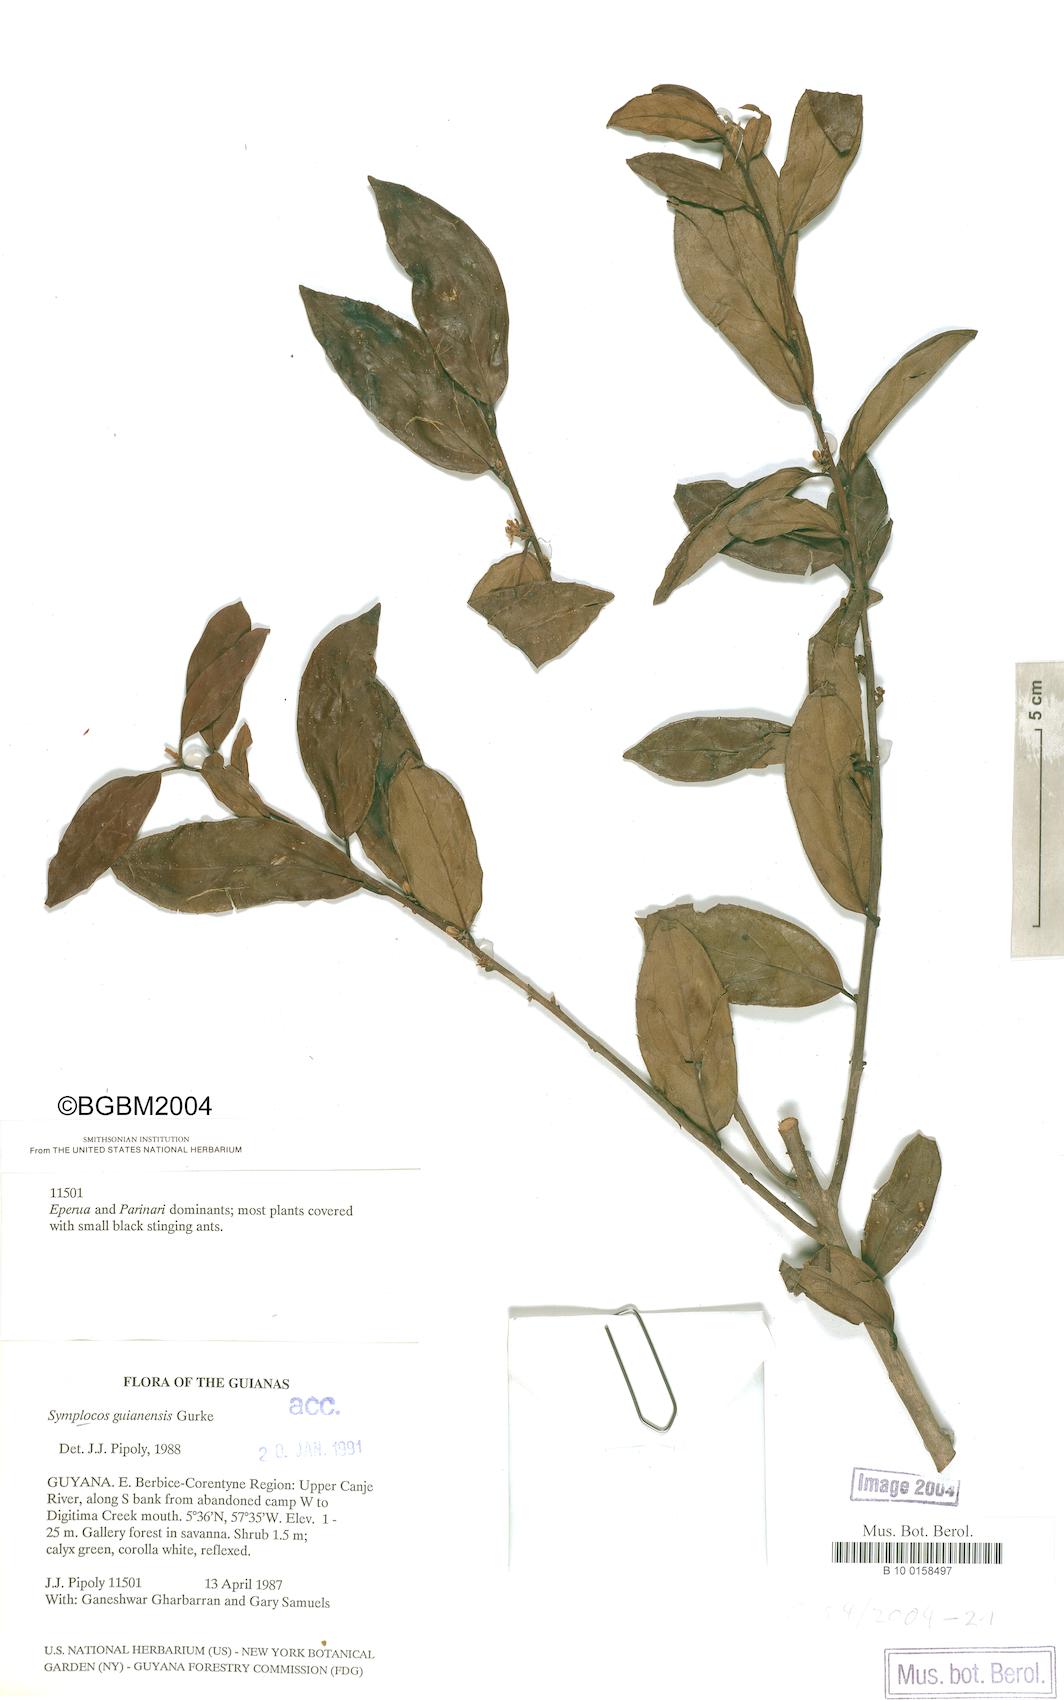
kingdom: Plantae
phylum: Tracheophyta
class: Magnoliopsida
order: Ericales
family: Symplocaceae
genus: Symplocos
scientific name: Symplocos guianensis
